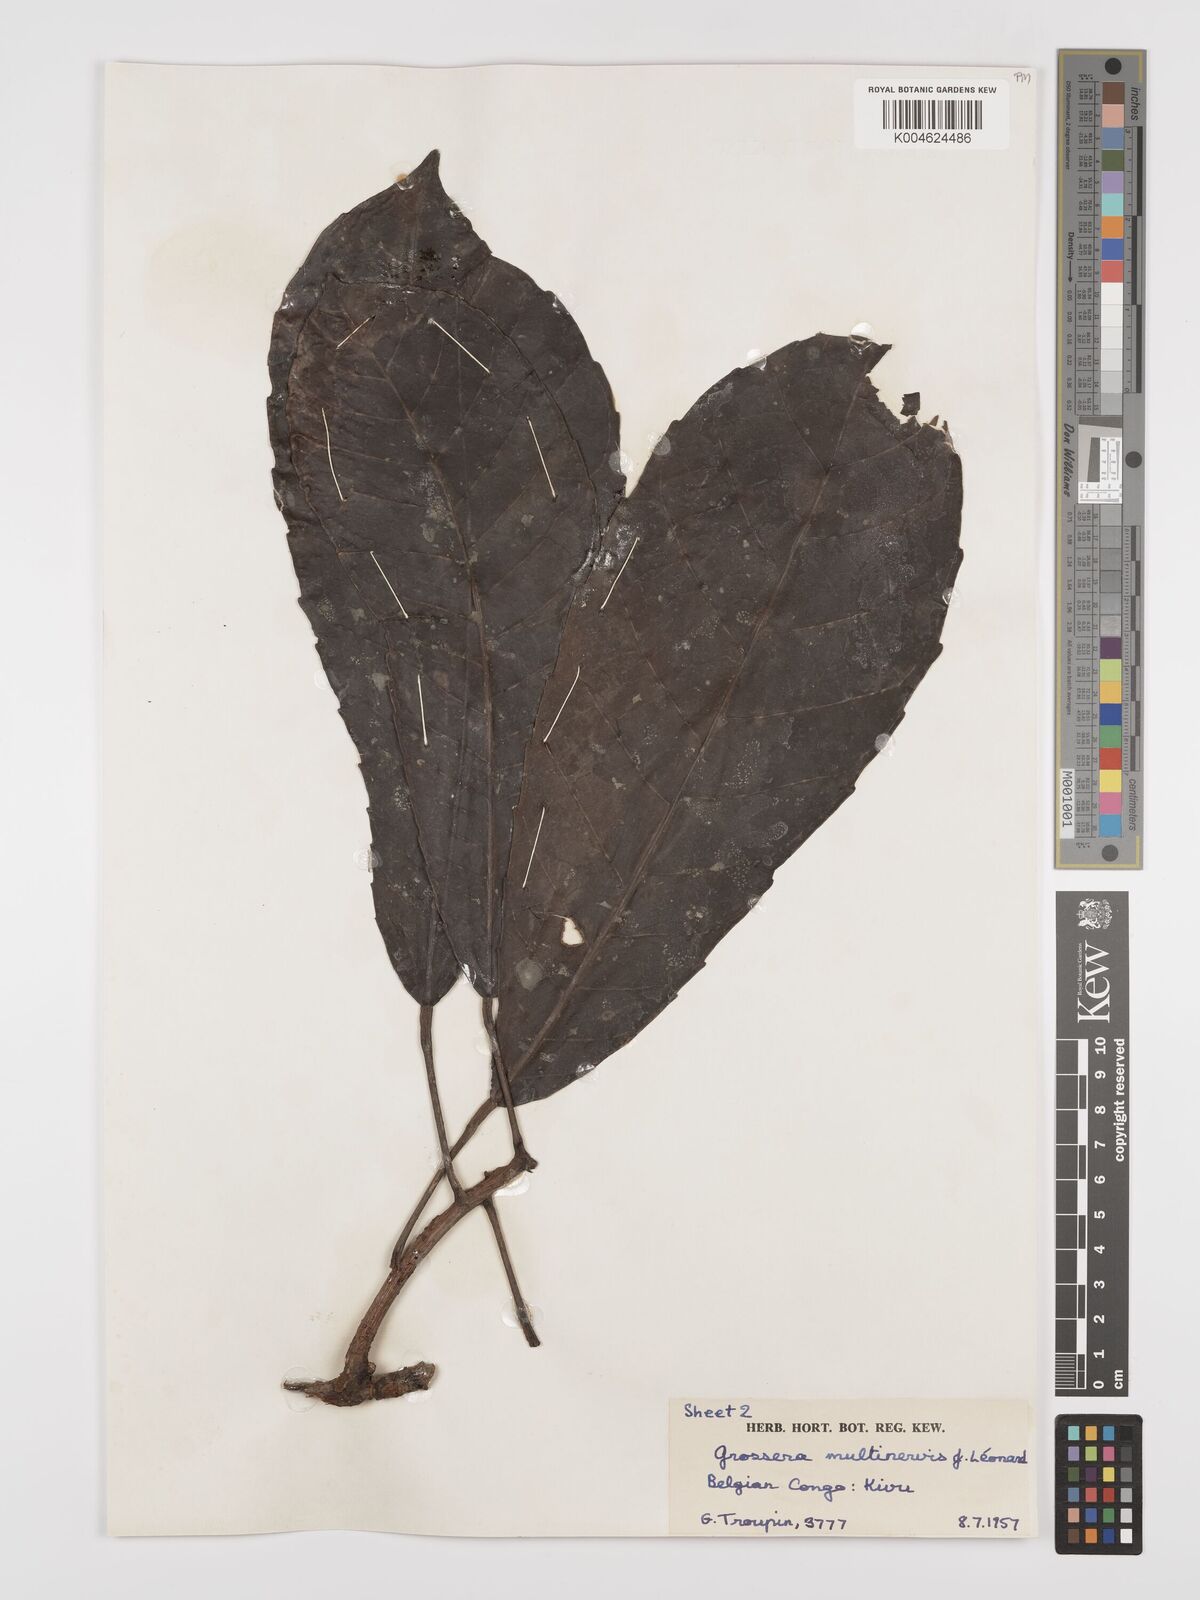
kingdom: Plantae
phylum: Tracheophyta
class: Magnoliopsida
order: Malpighiales
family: Euphorbiaceae
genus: Grossera
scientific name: Grossera multinervis
